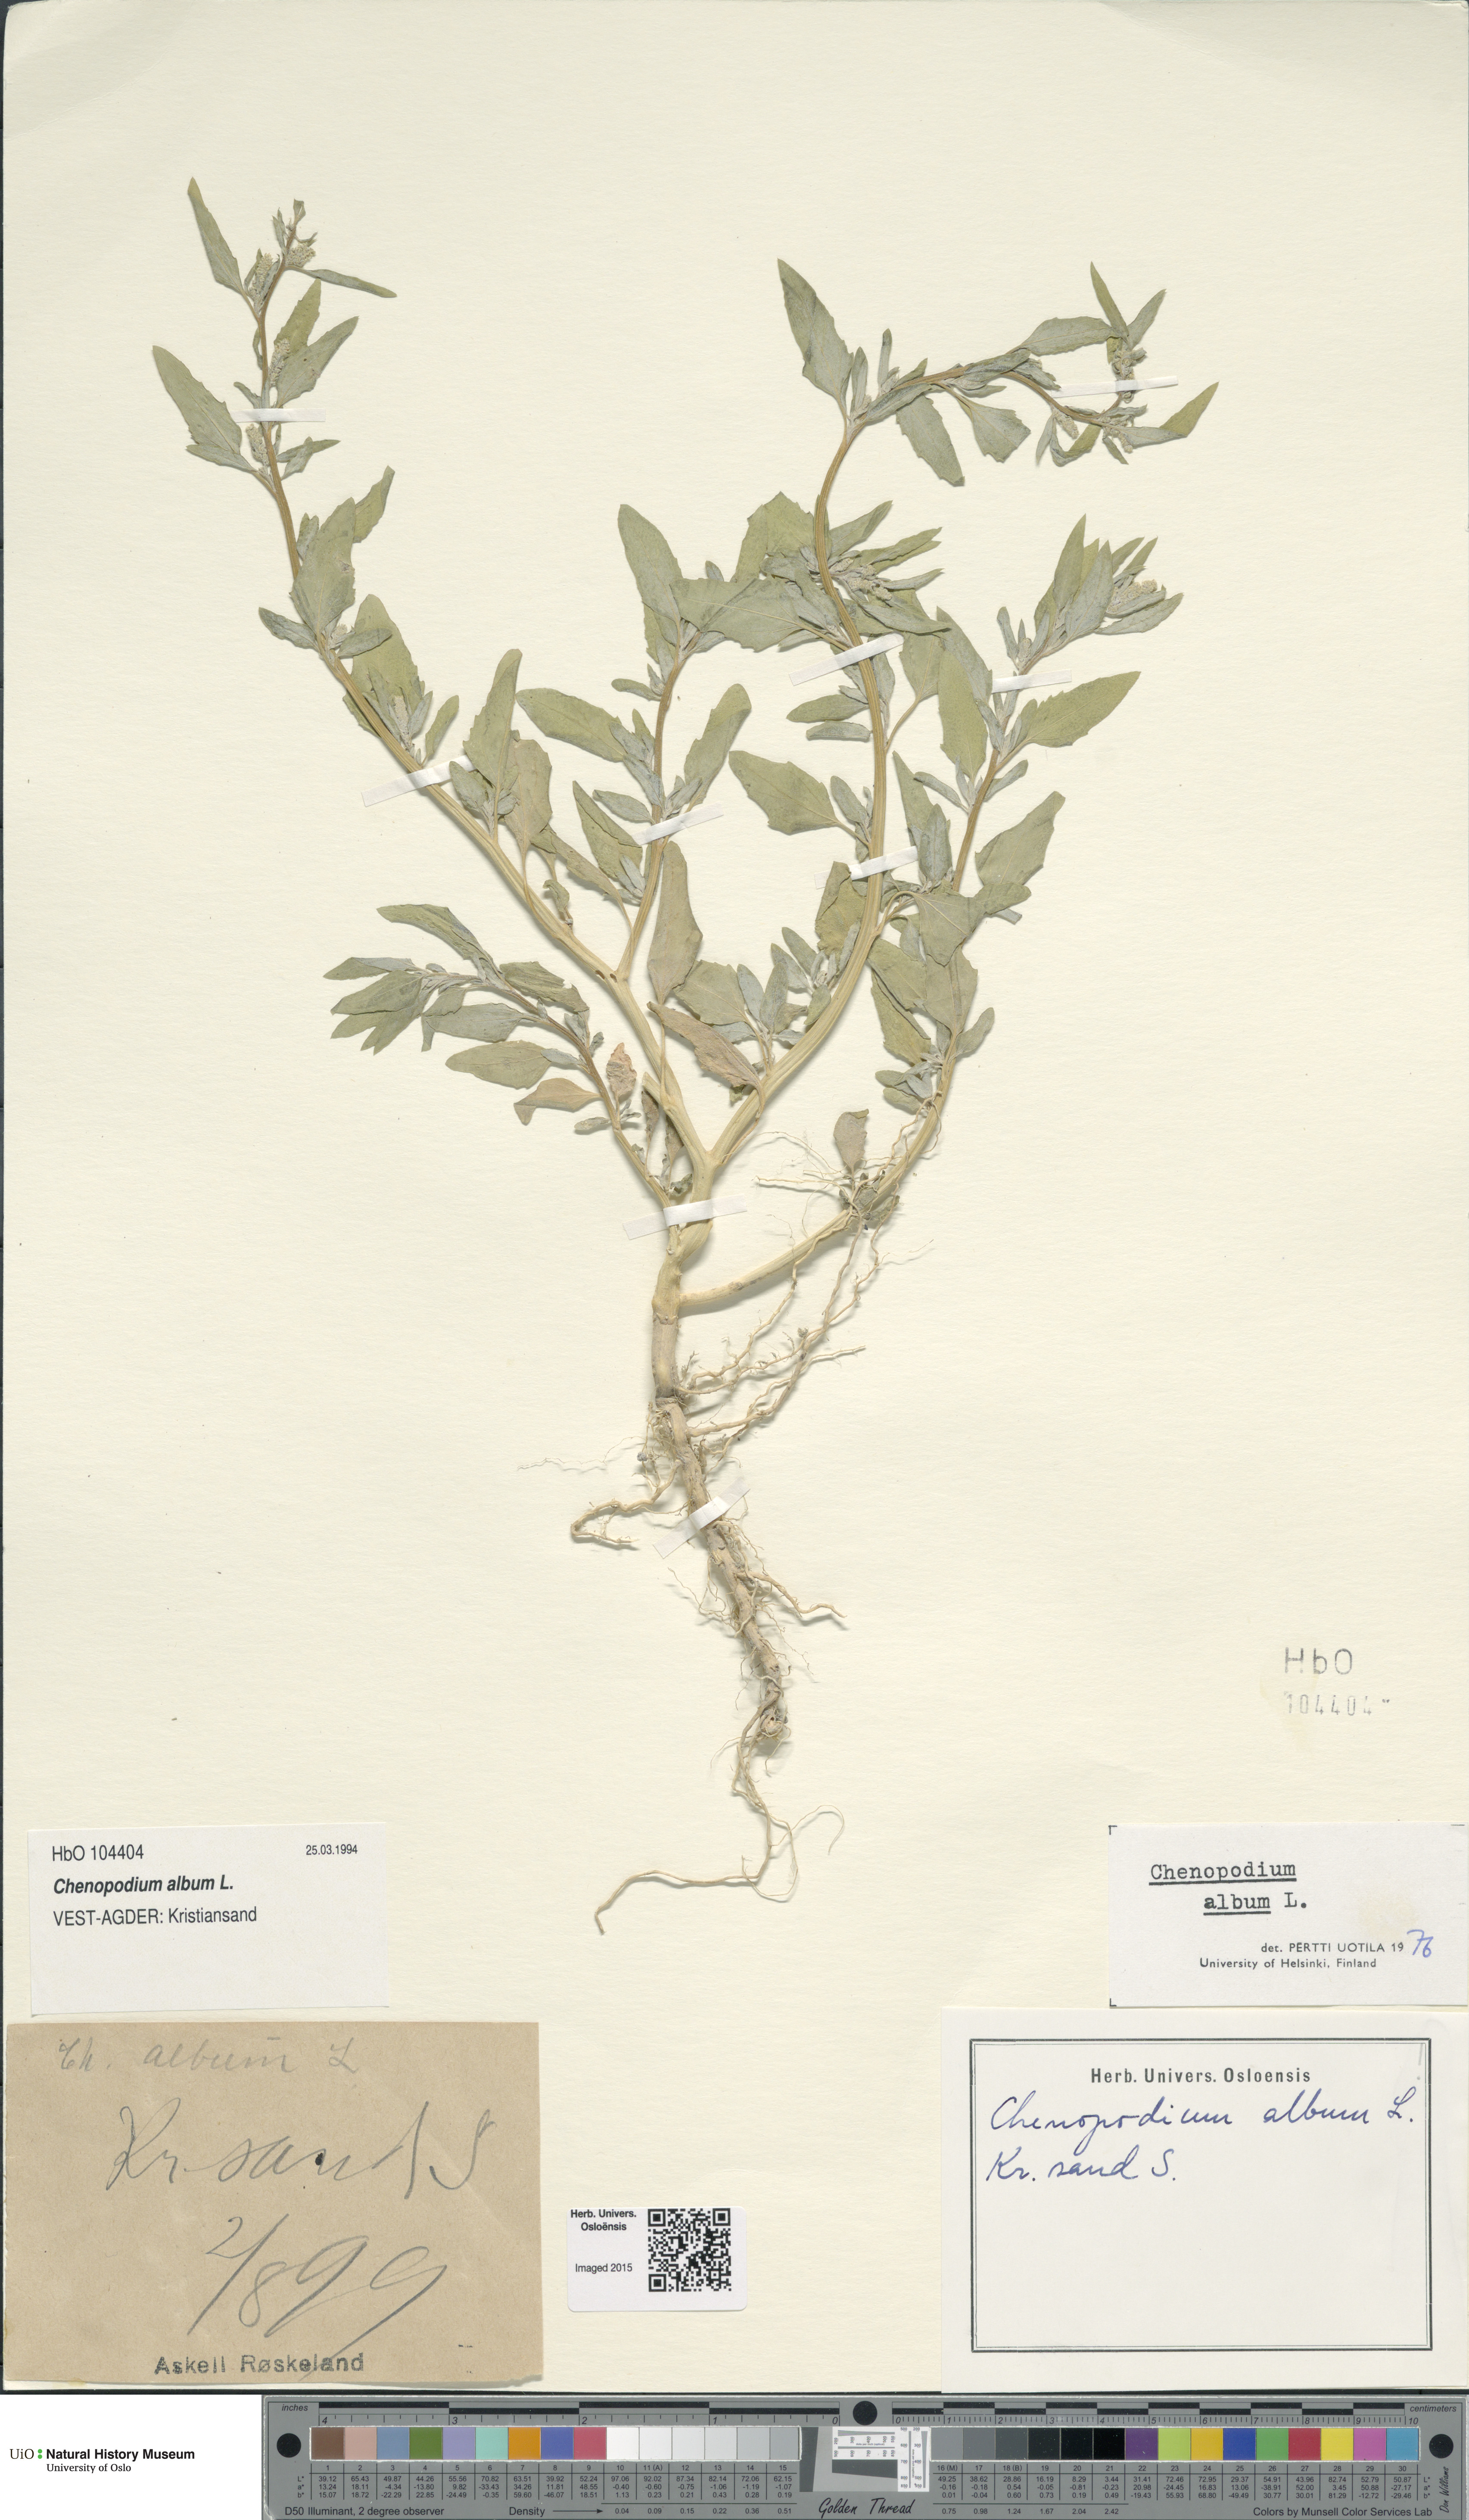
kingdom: Plantae
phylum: Tracheophyta
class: Magnoliopsida
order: Caryophyllales
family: Amaranthaceae
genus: Chenopodium
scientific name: Chenopodium album
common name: Fat-hen
